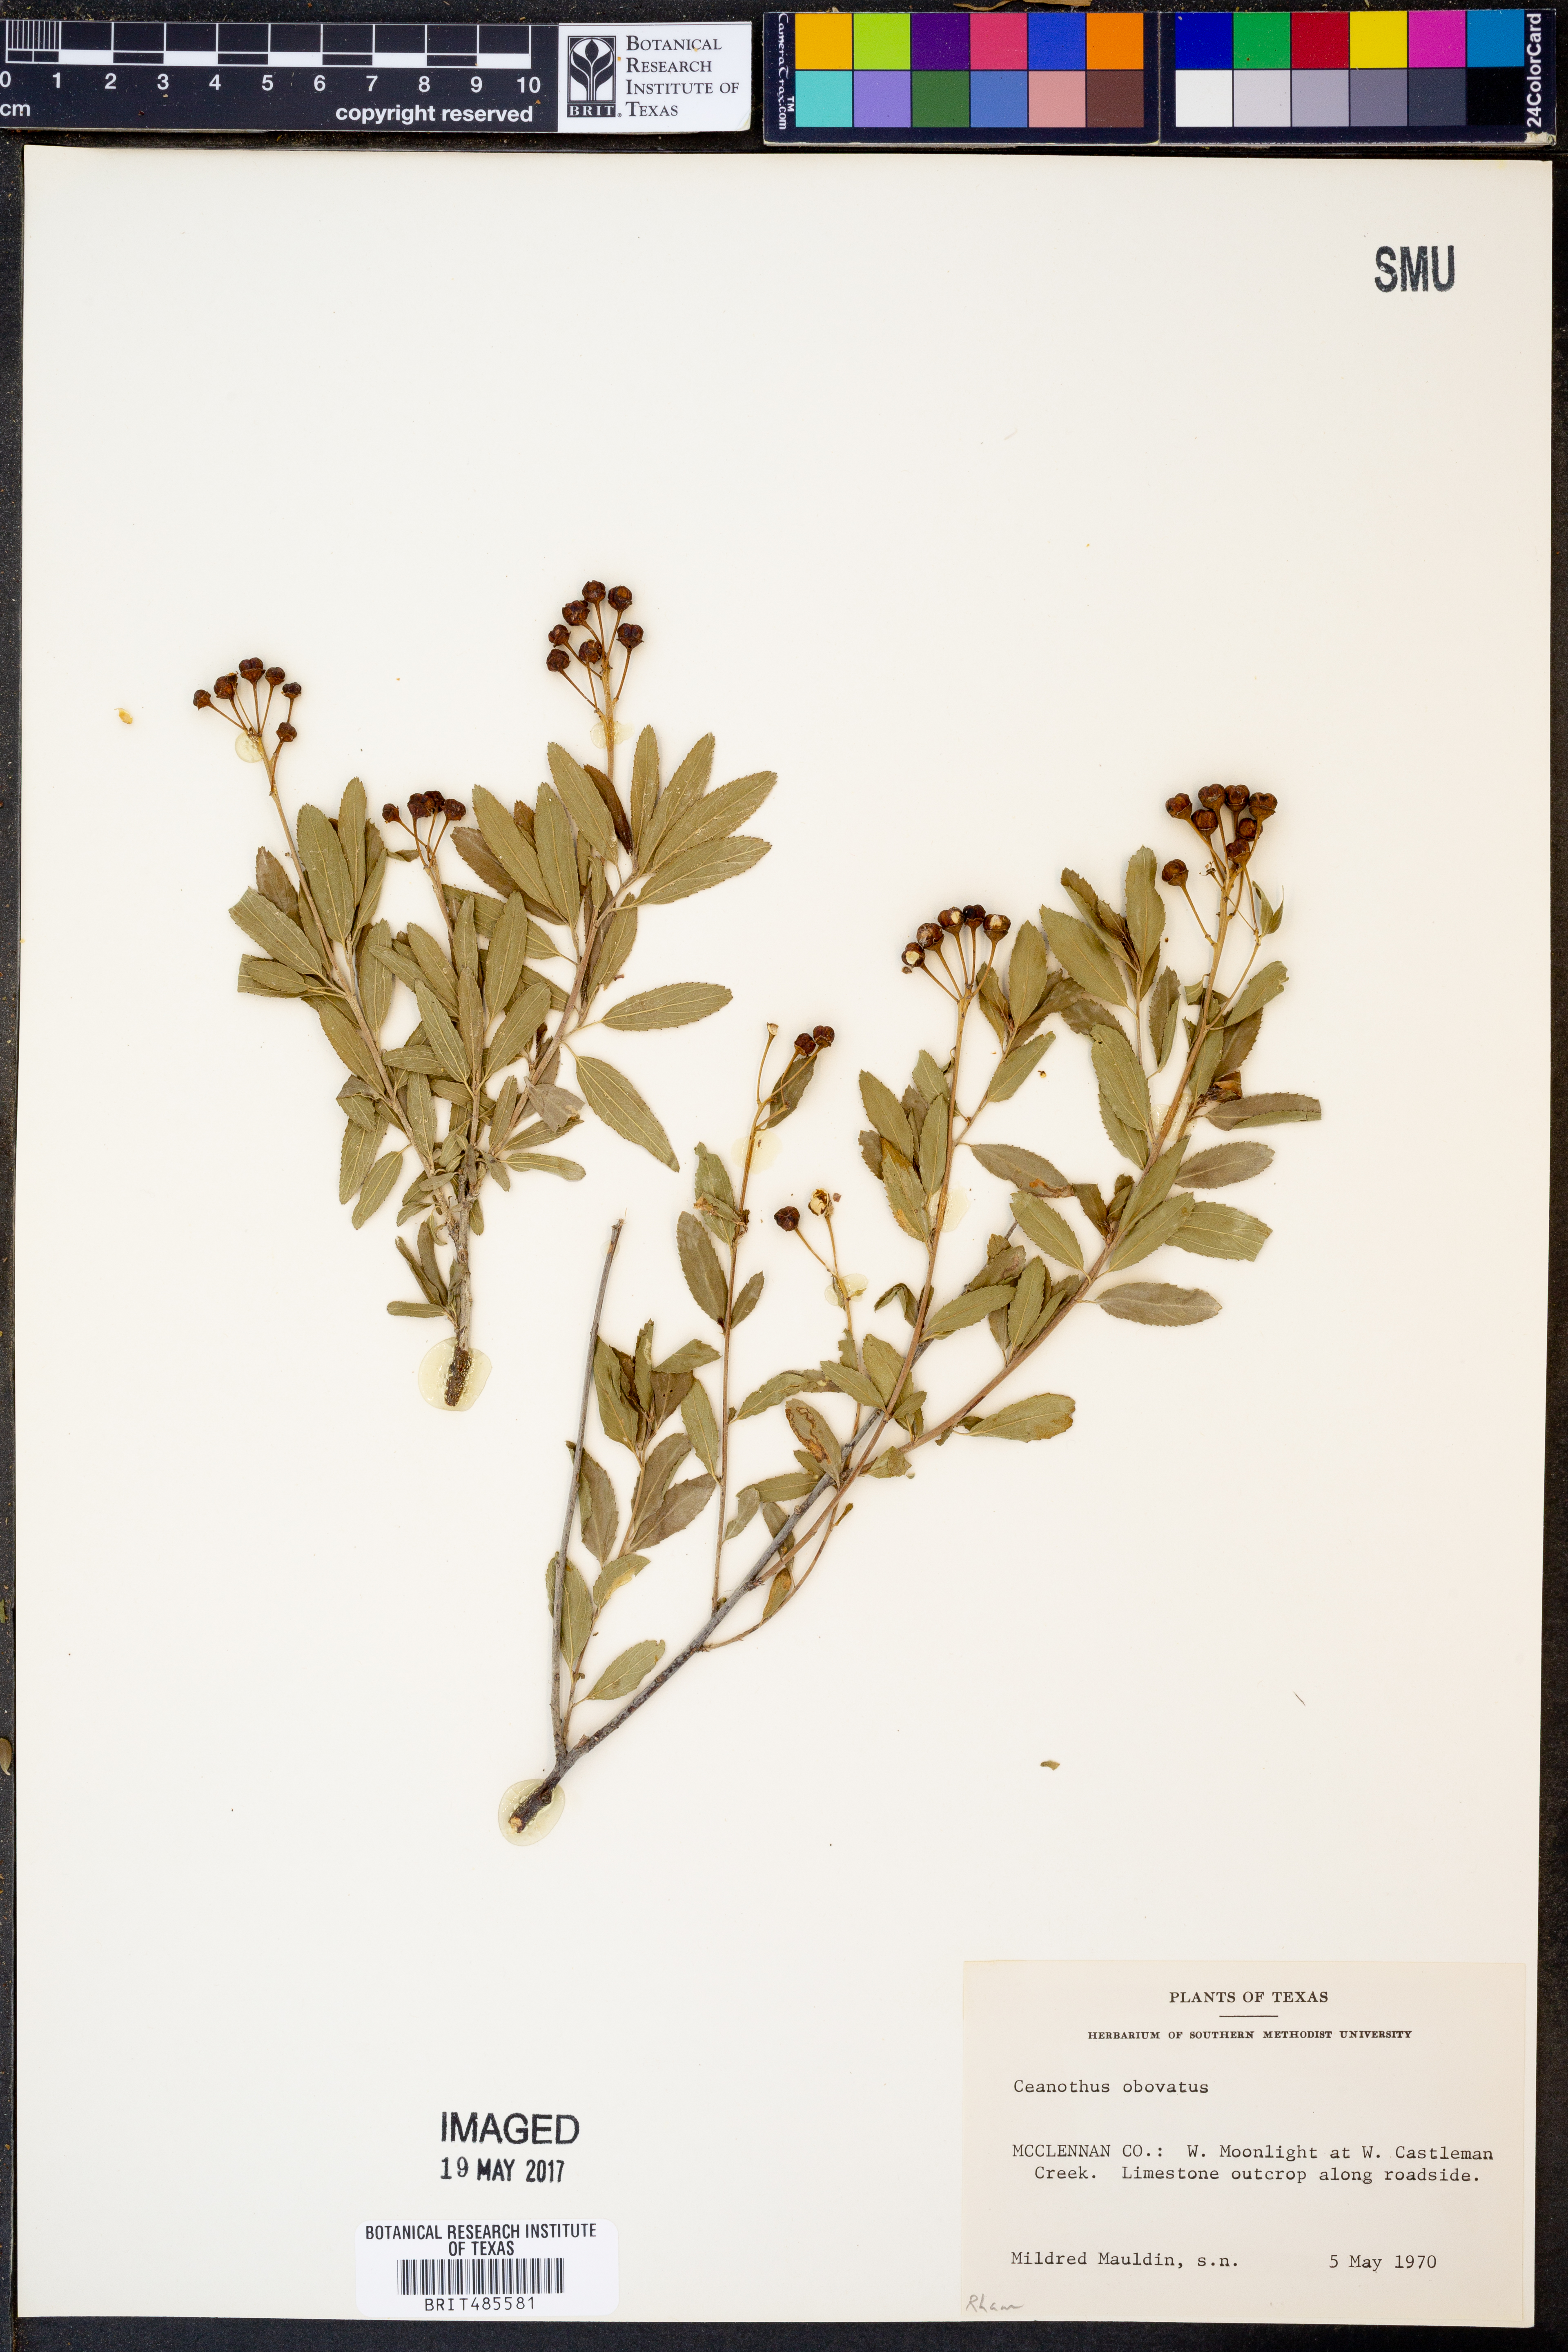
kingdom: Plantae
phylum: Tracheophyta
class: Magnoliopsida
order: Rosales
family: Rhamnaceae
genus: Ceanothus
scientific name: Ceanothus herbaceus
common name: Inland ceanothus
